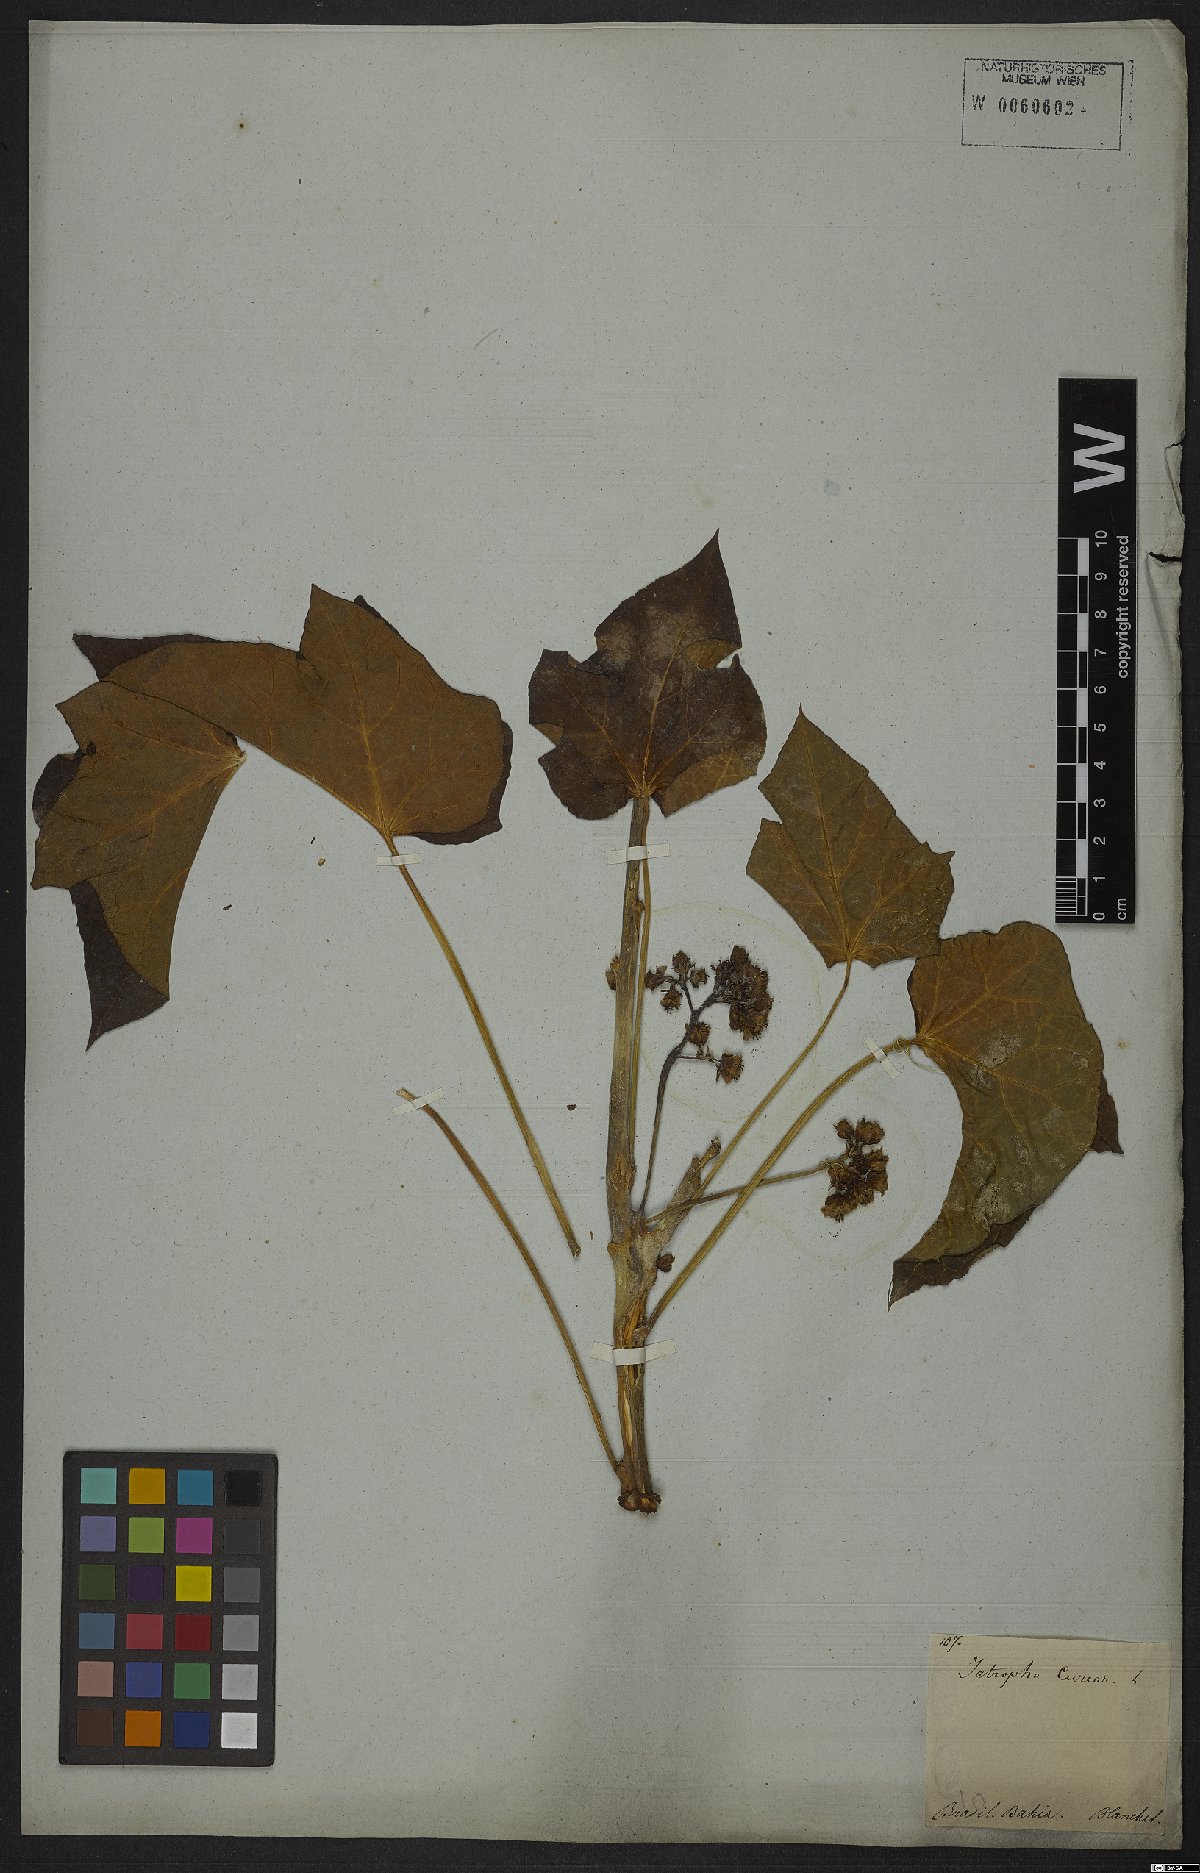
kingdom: Plantae
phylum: Tracheophyta
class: Magnoliopsida
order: Malpighiales
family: Euphorbiaceae
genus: Jatropha
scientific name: Jatropha curcas
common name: Barbados nut
